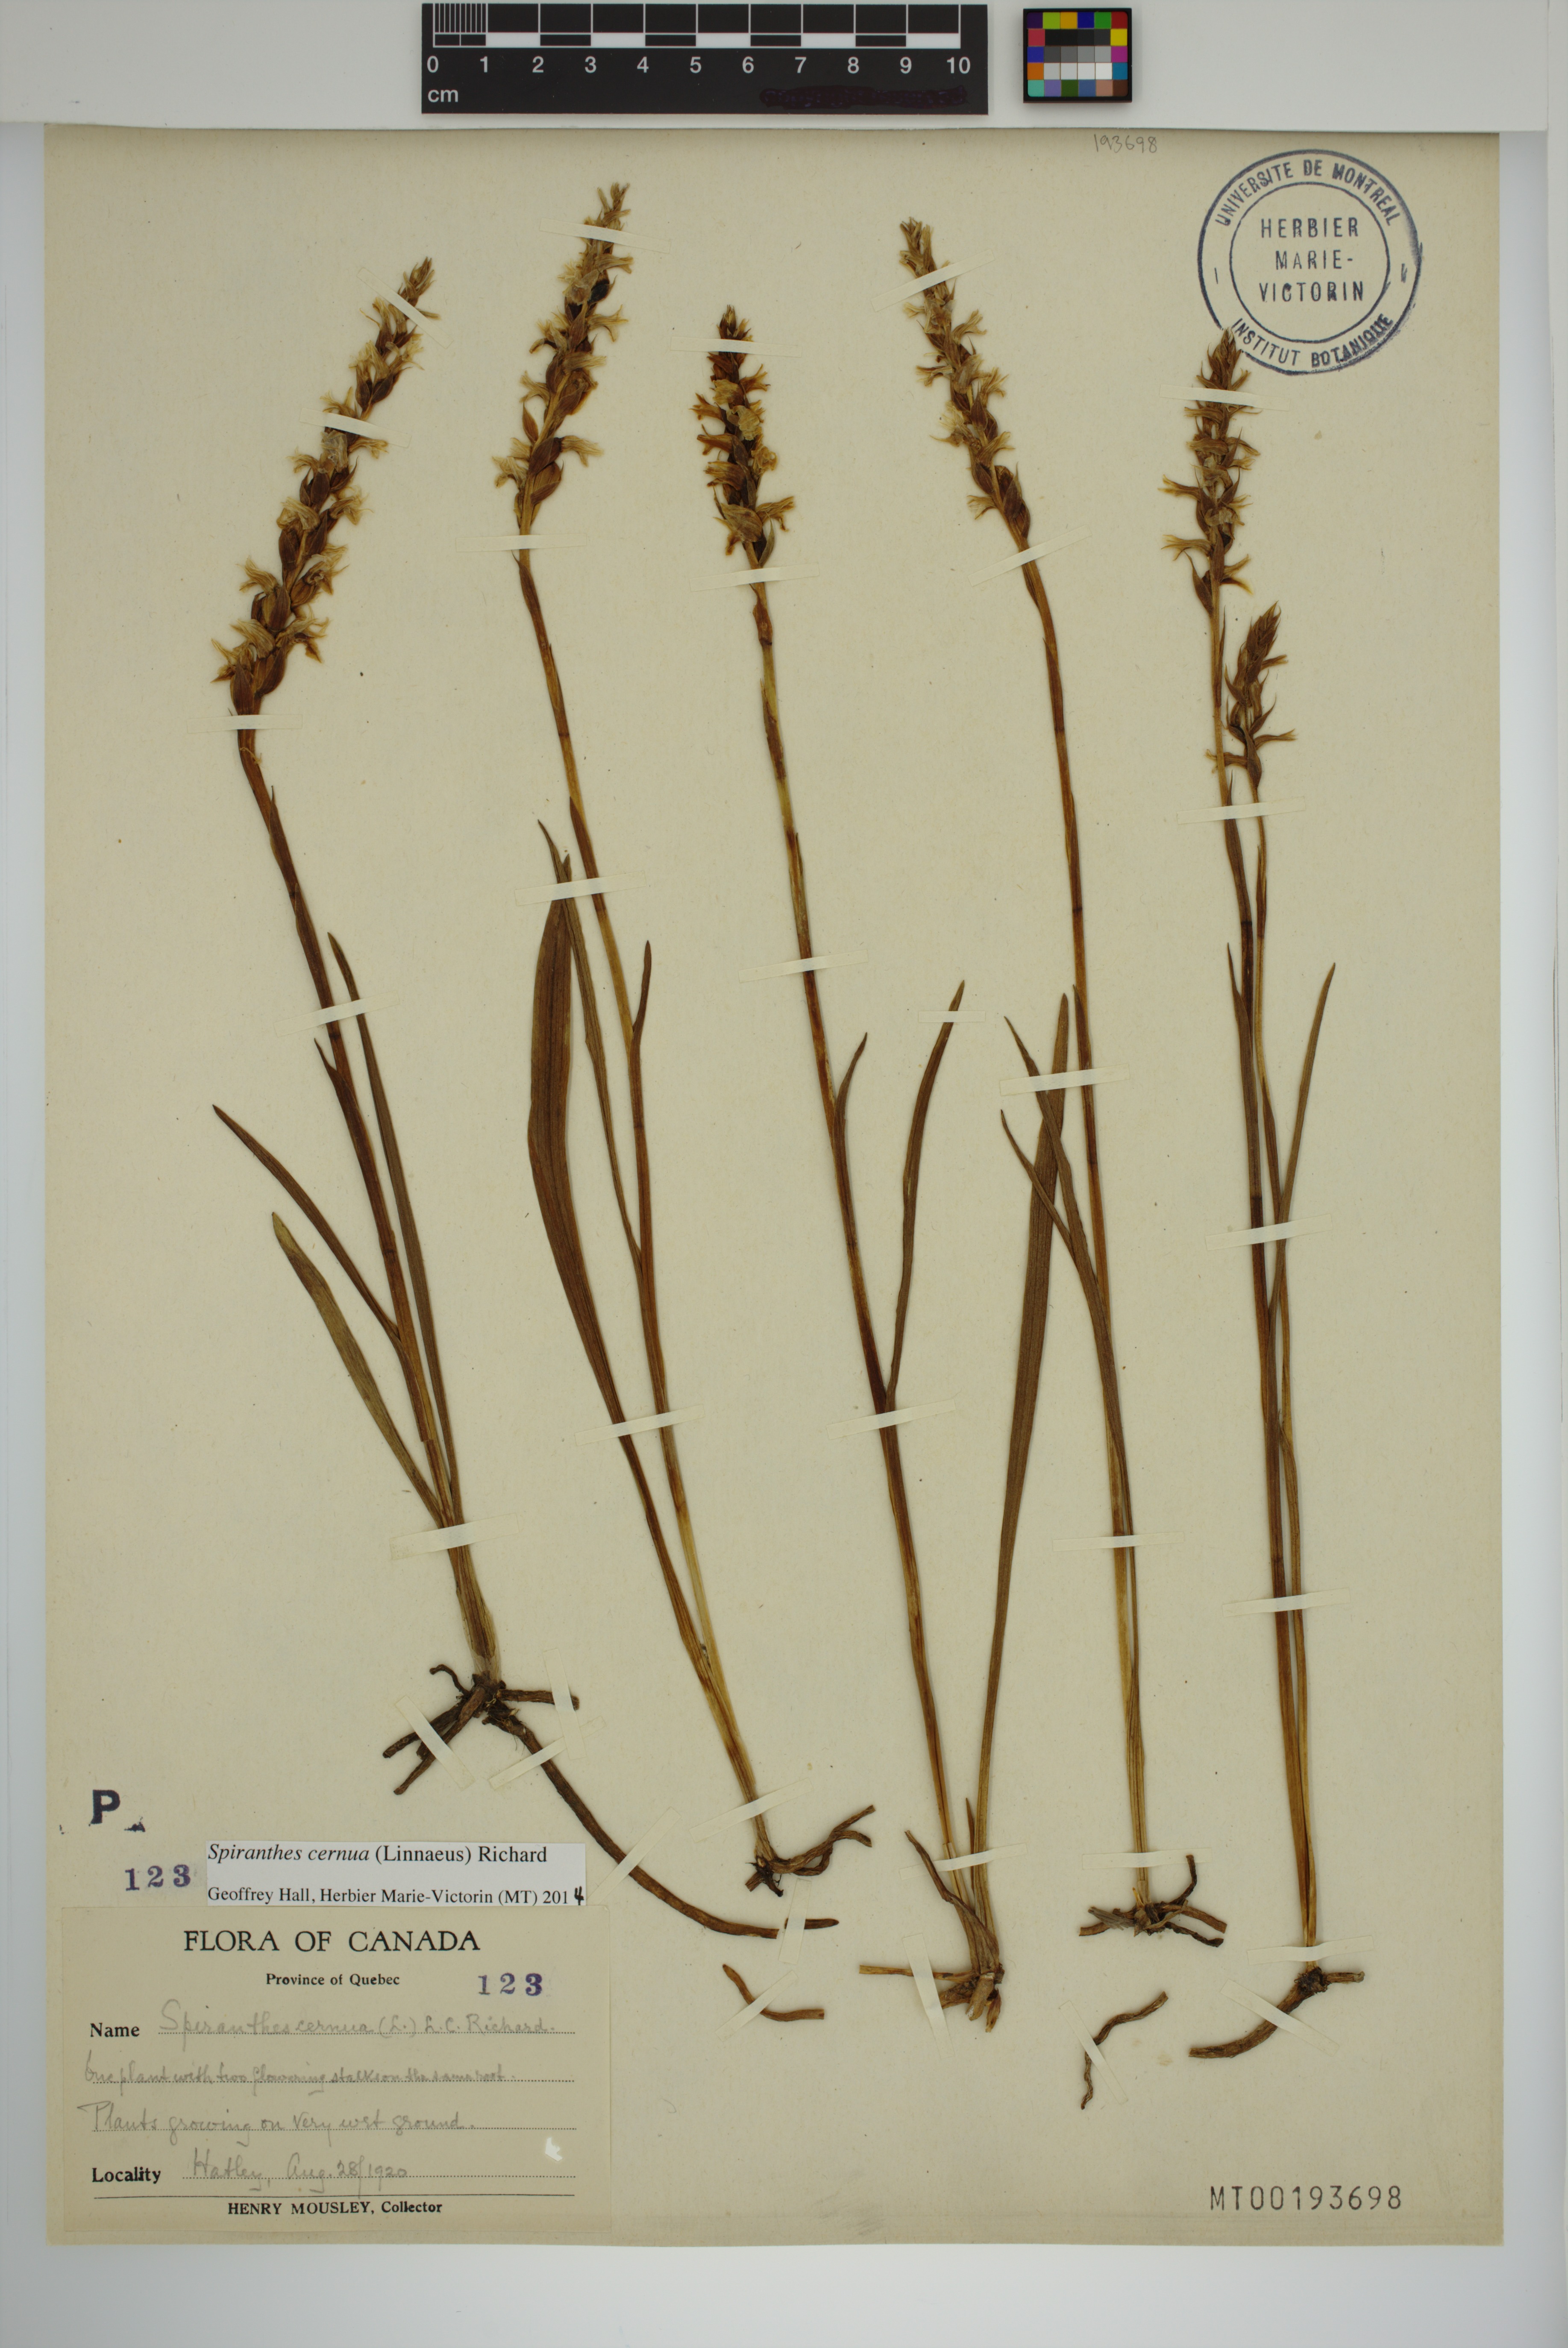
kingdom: Plantae
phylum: Tracheophyta
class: Liliopsida
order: Asparagales
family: Orchidaceae
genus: Spiranthes
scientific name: Spiranthes cernua
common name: Dropping ladies'-tresses
